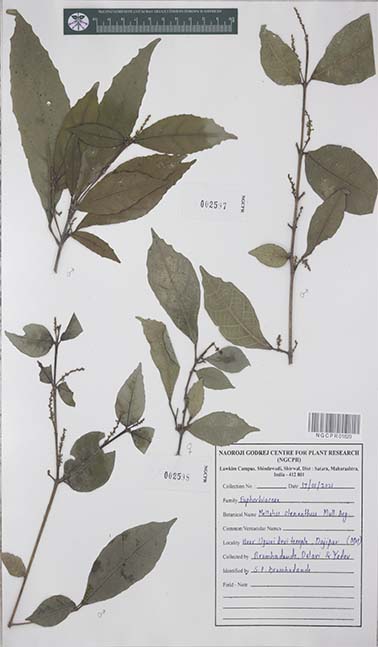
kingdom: Plantae
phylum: Tracheophyta
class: Magnoliopsida
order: Malpighiales
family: Euphorbiaceae
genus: Mallotus
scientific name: Mallotus resinosus
